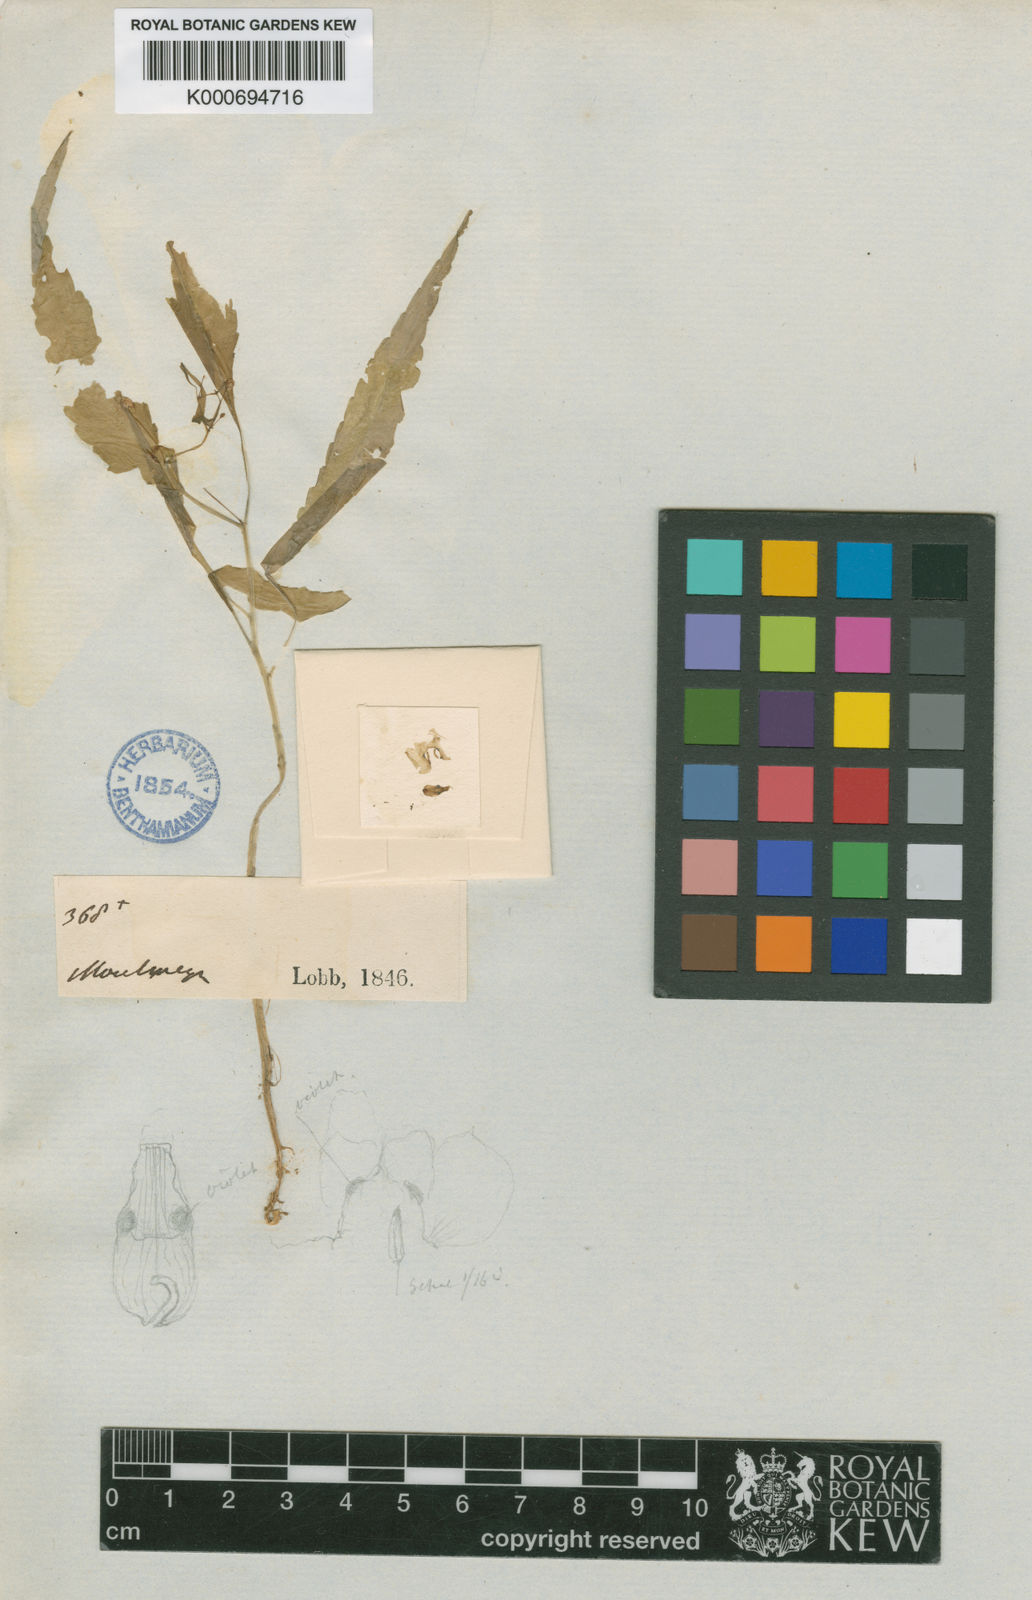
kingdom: Plantae
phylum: Tracheophyta
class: Magnoliopsida
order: Ericales
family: Balsaminaceae
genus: Impatiens
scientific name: Impatiens capillipes
